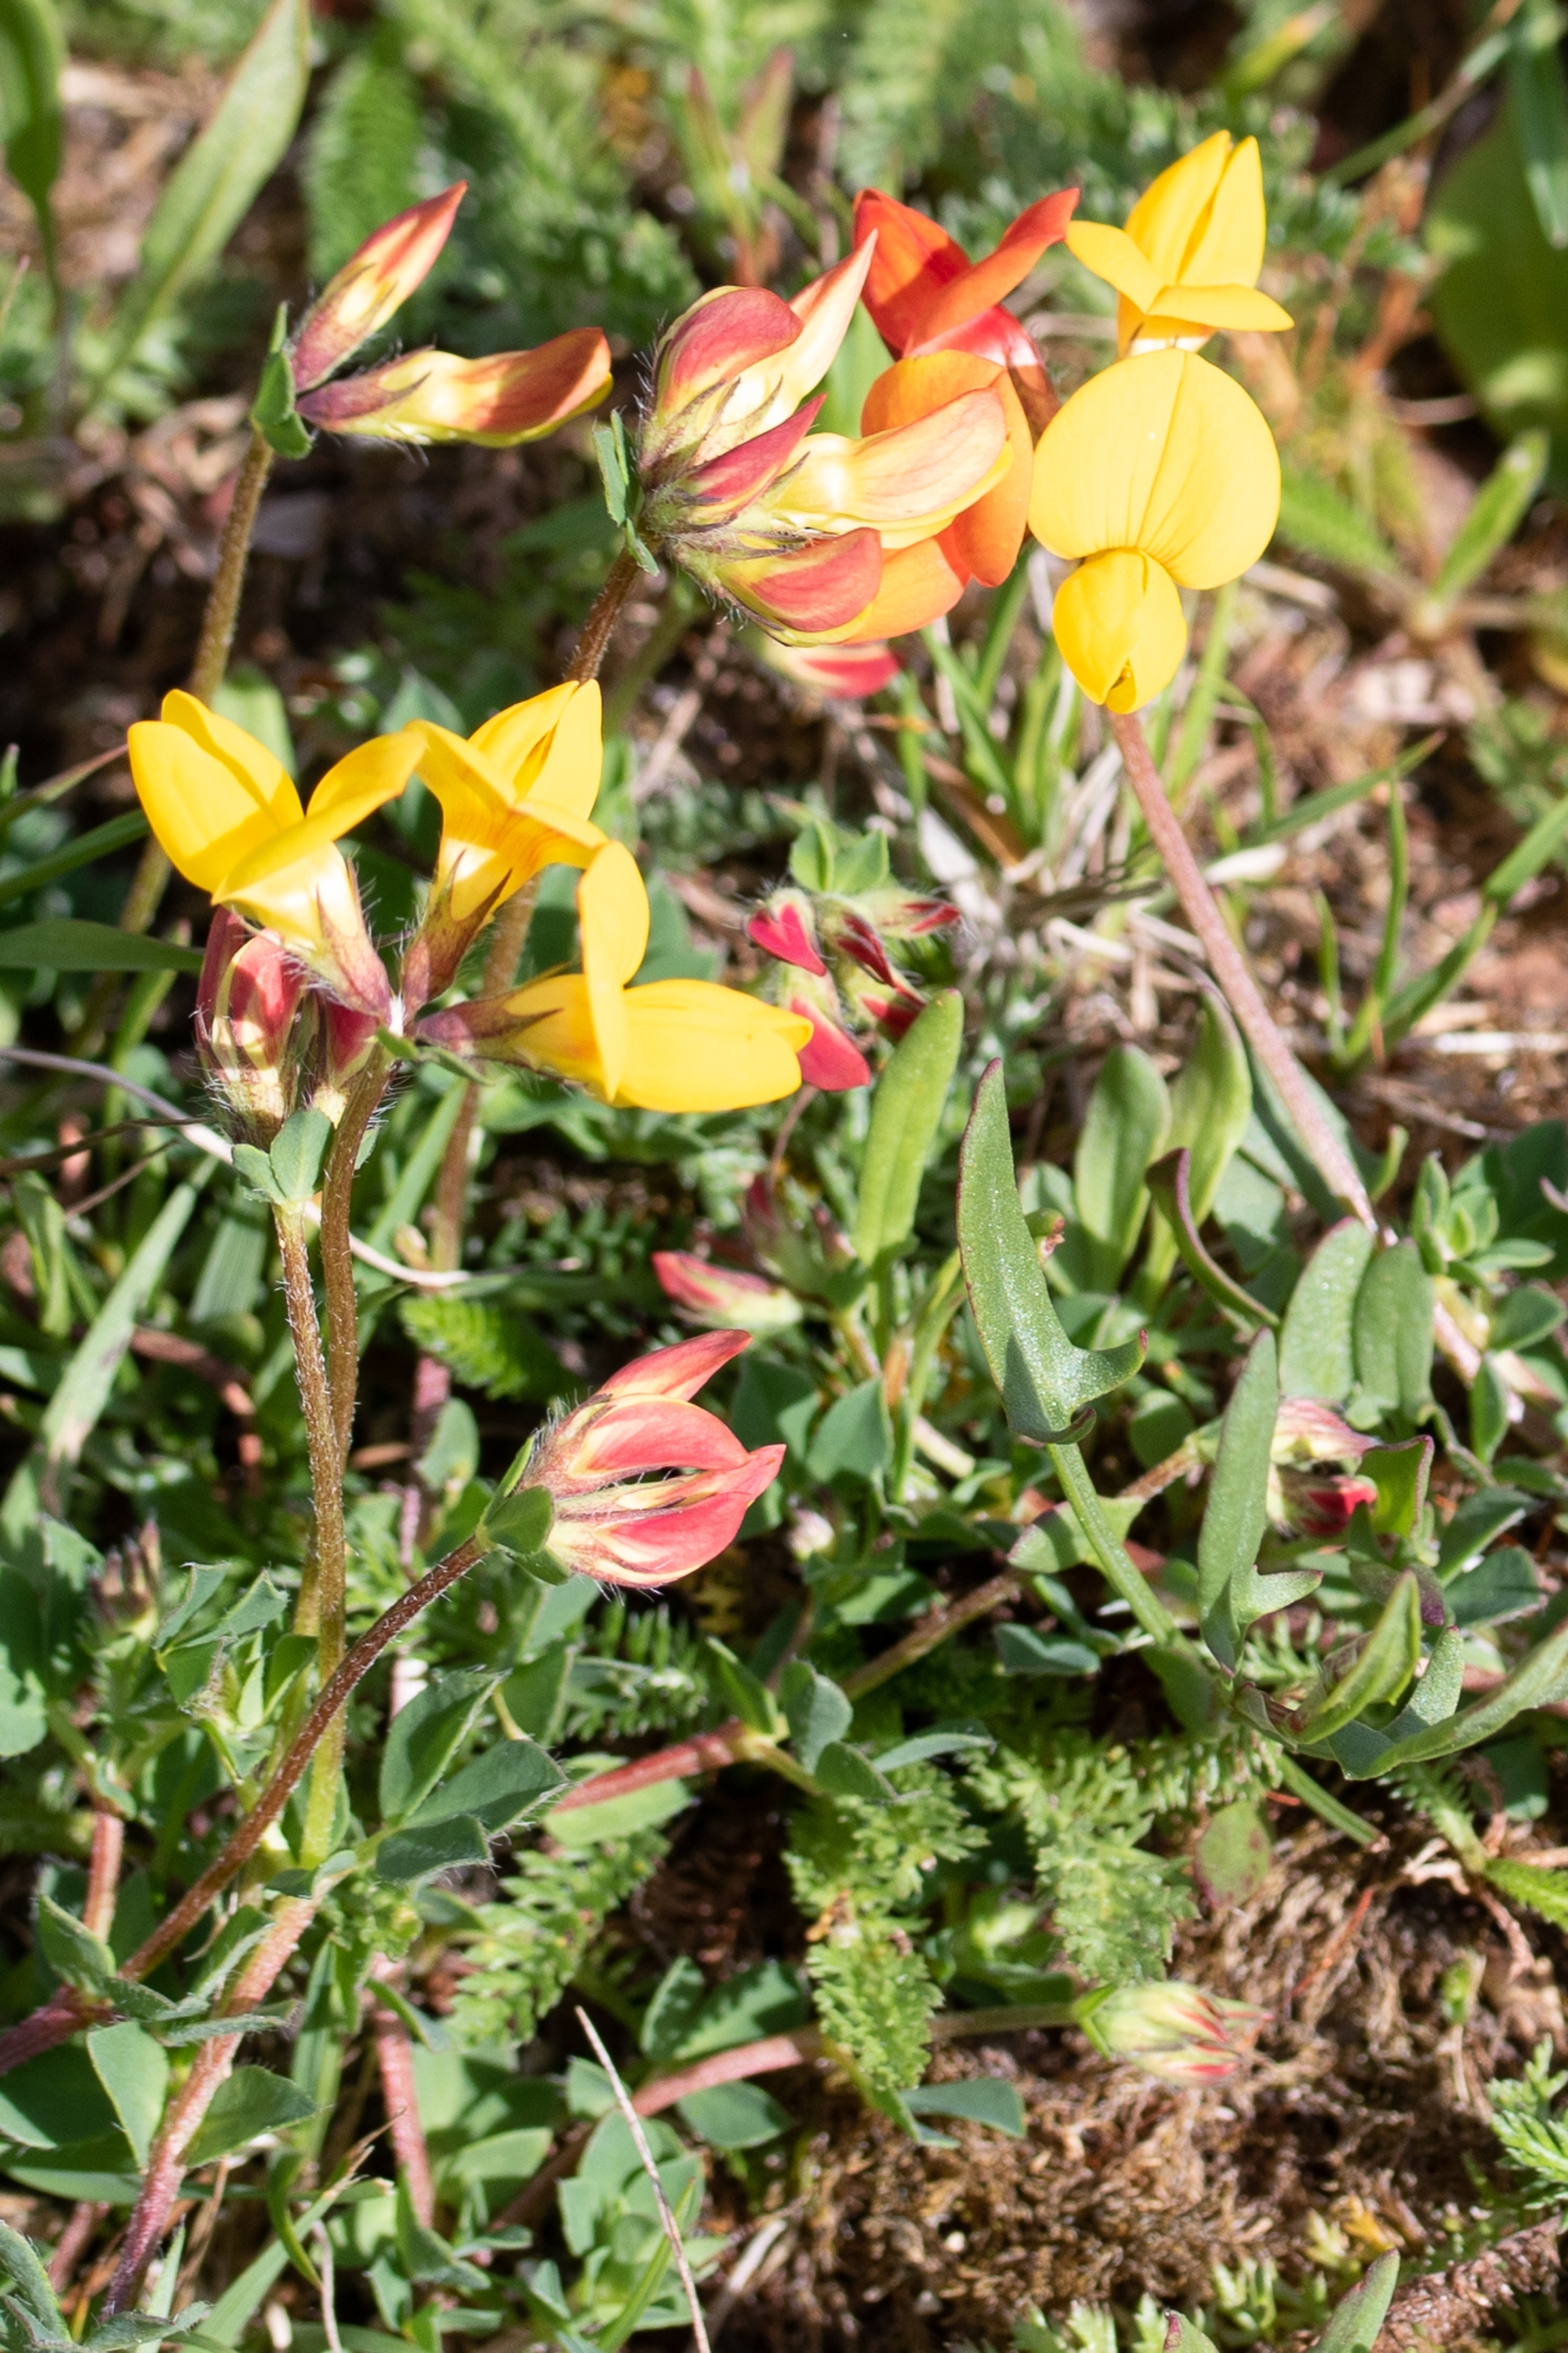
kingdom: Plantae
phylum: Tracheophyta
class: Magnoliopsida
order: Fabales
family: Fabaceae
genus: Lotus
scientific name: Lotus corniculatus
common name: Almindelig kællingetand
